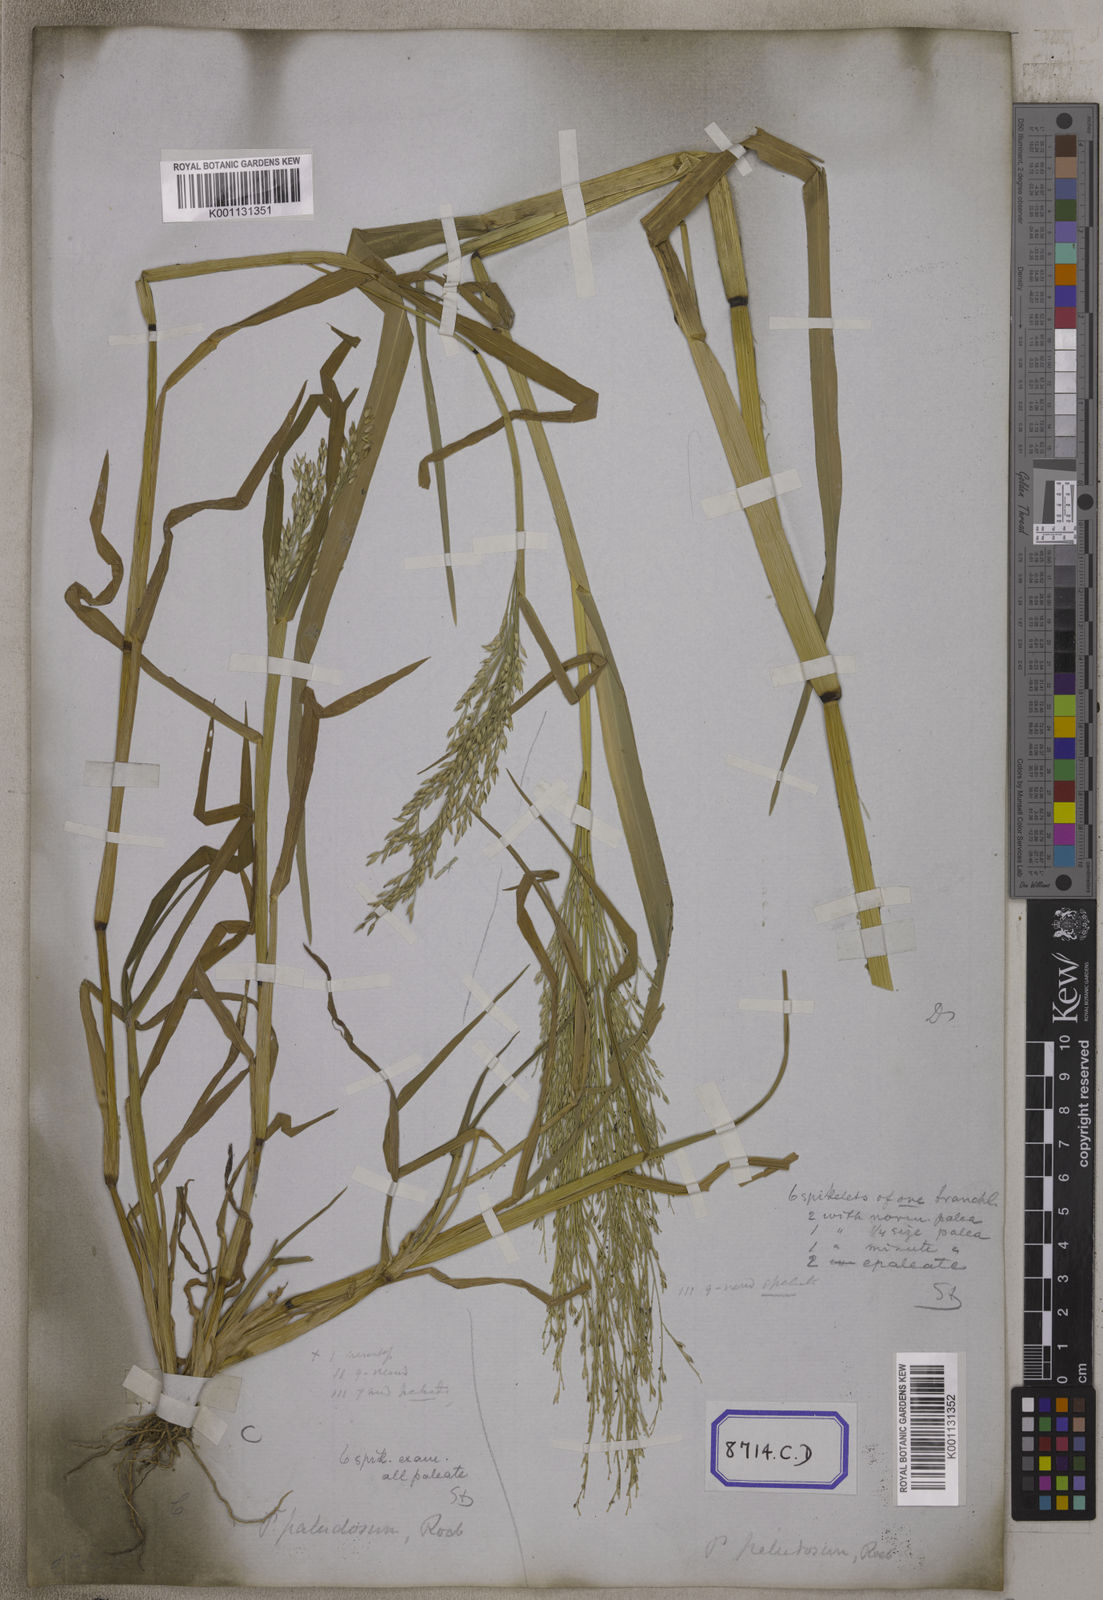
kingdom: Plantae
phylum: Tracheophyta
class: Liliopsida
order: Poales
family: Poaceae
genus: Panicum
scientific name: Panicum
